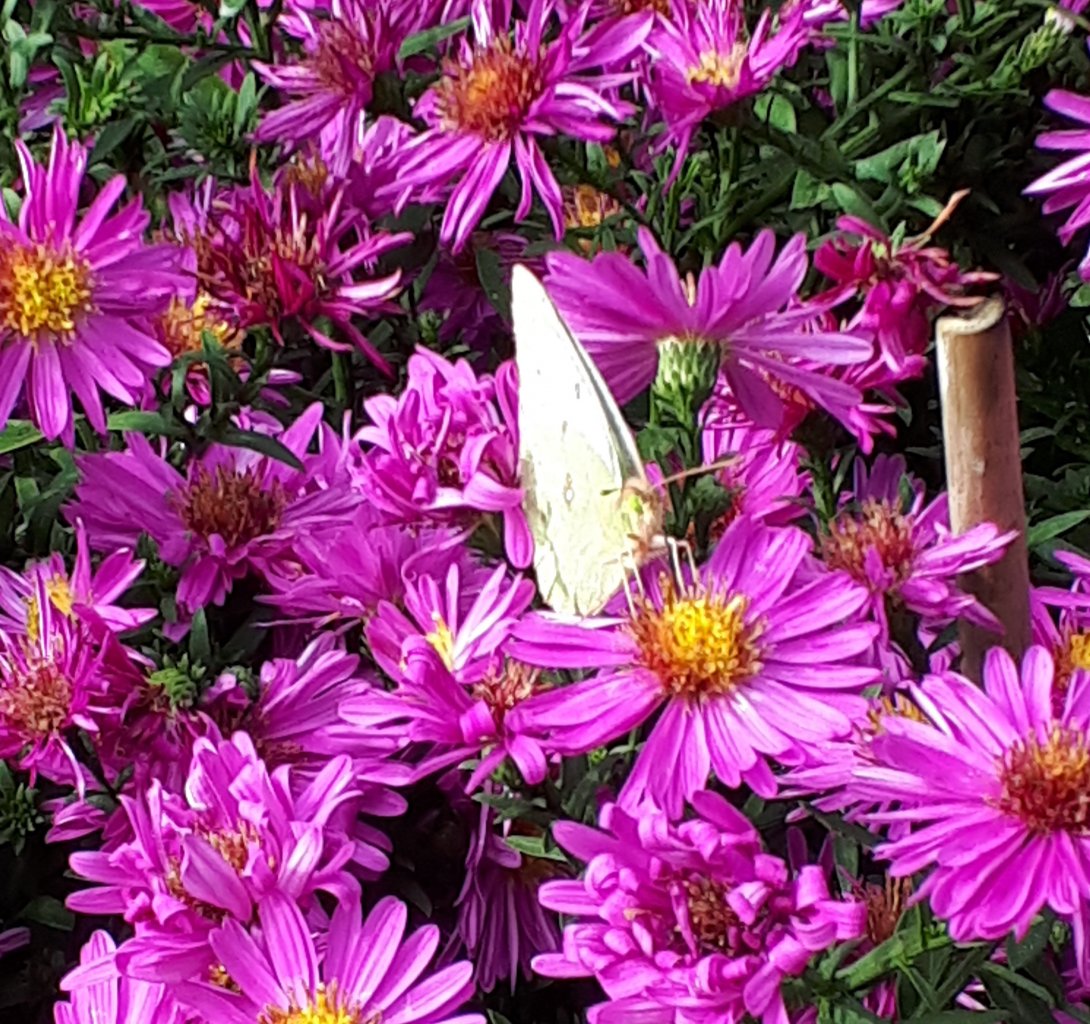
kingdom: Animalia
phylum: Arthropoda
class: Insecta
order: Lepidoptera
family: Pieridae
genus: Colias
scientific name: Colias philodice
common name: Clouded Sulphur
